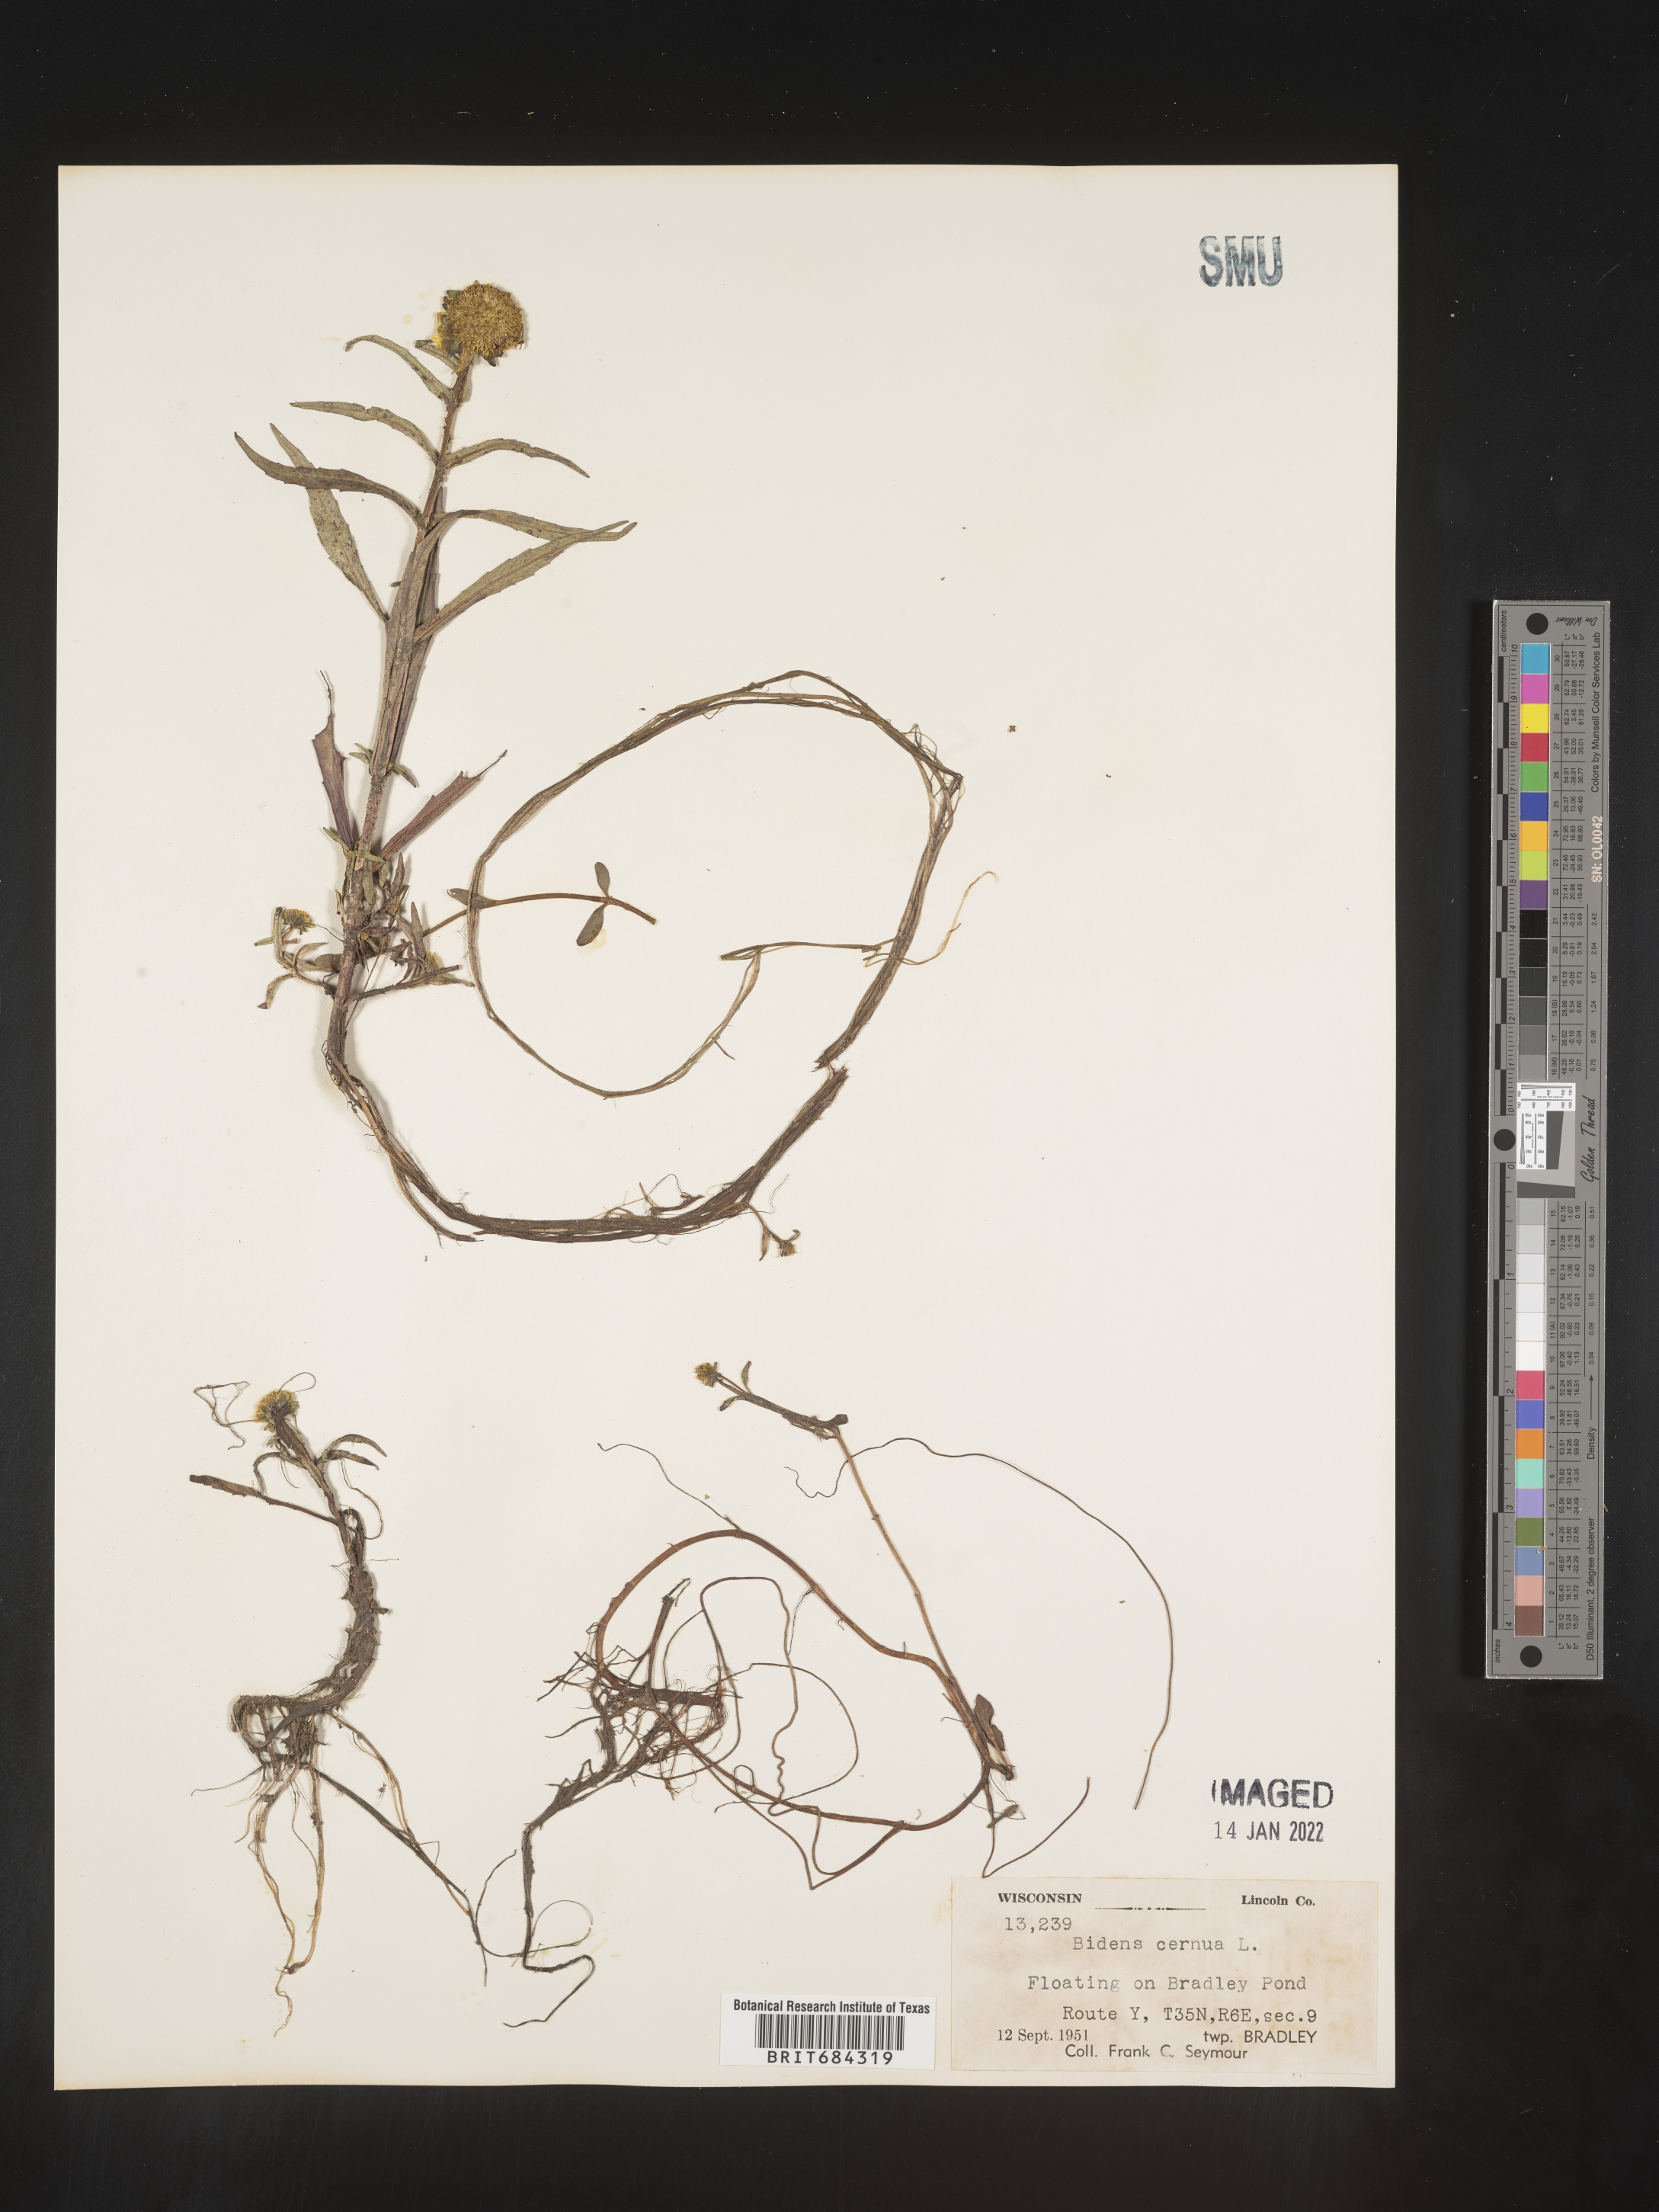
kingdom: Plantae
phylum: Tracheophyta
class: Magnoliopsida
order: Asterales
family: Asteraceae
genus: Bidens
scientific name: Bidens cernua
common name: Nodding bur-marigold
